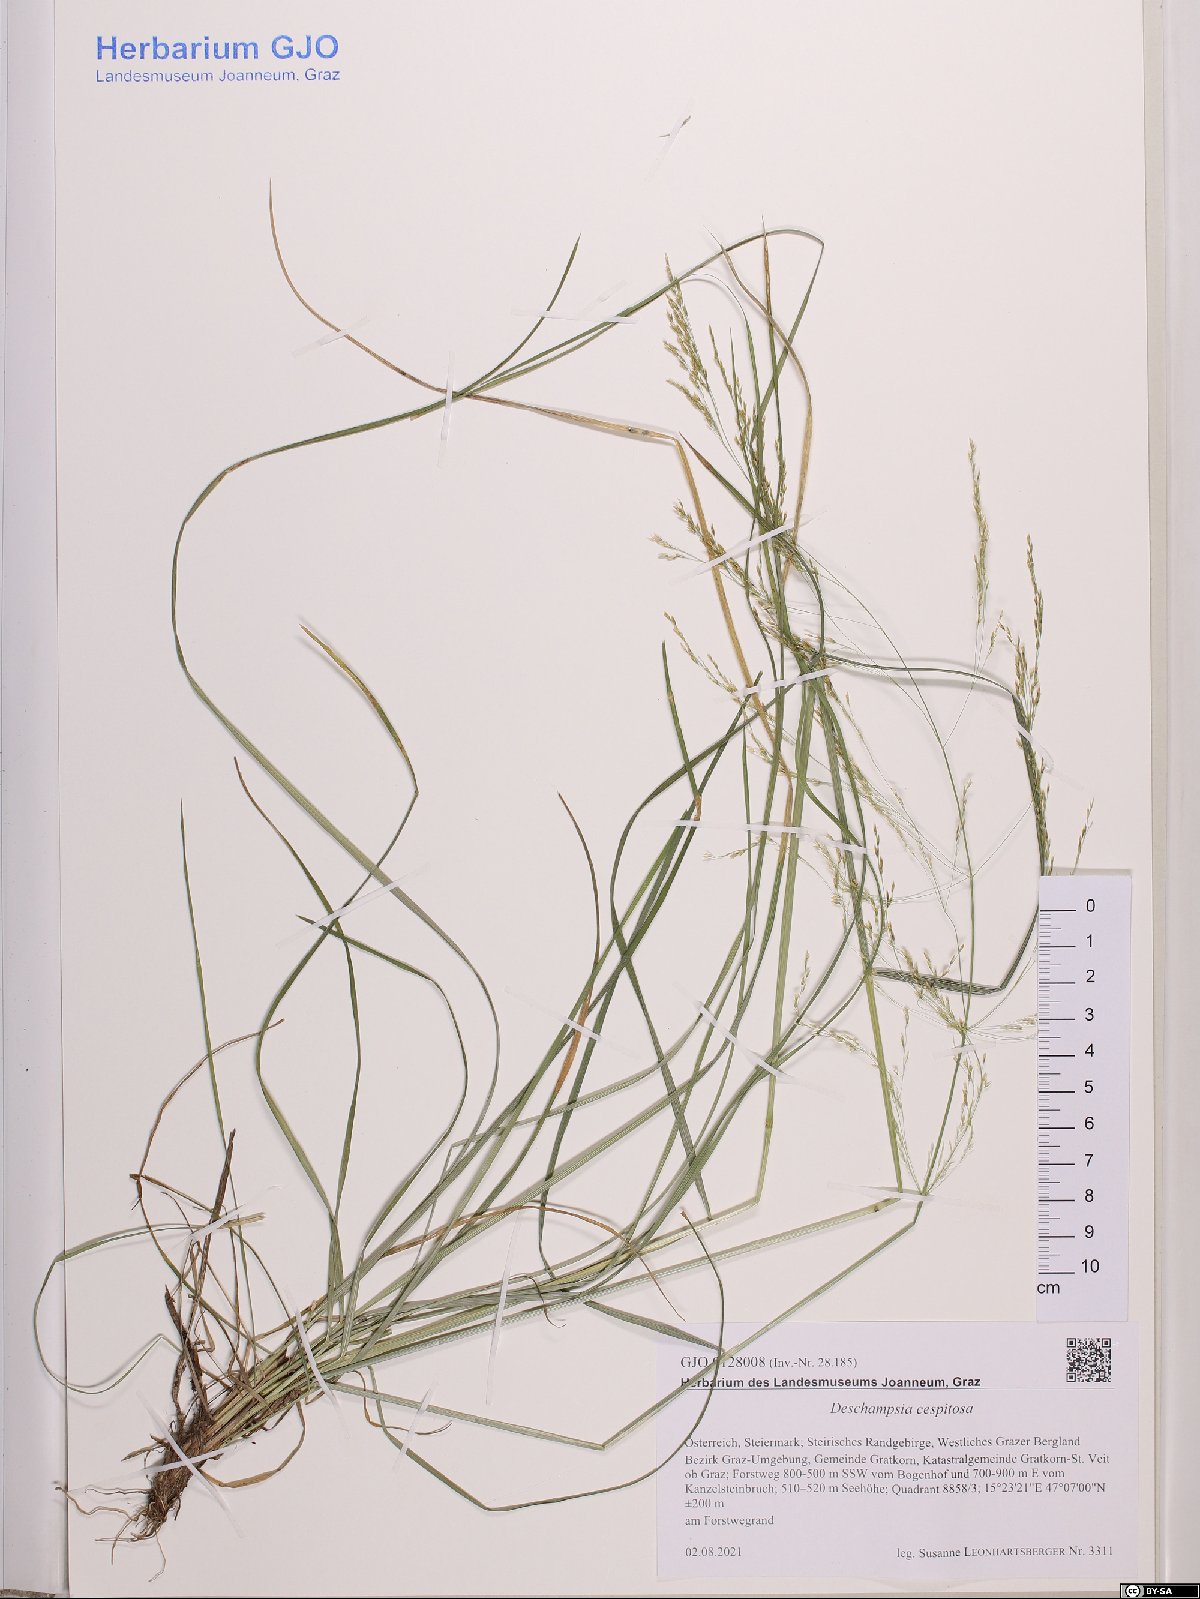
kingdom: Plantae
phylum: Tracheophyta
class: Liliopsida
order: Poales
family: Poaceae
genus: Deschampsia
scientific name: Deschampsia cespitosa
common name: Tufted hair-grass
